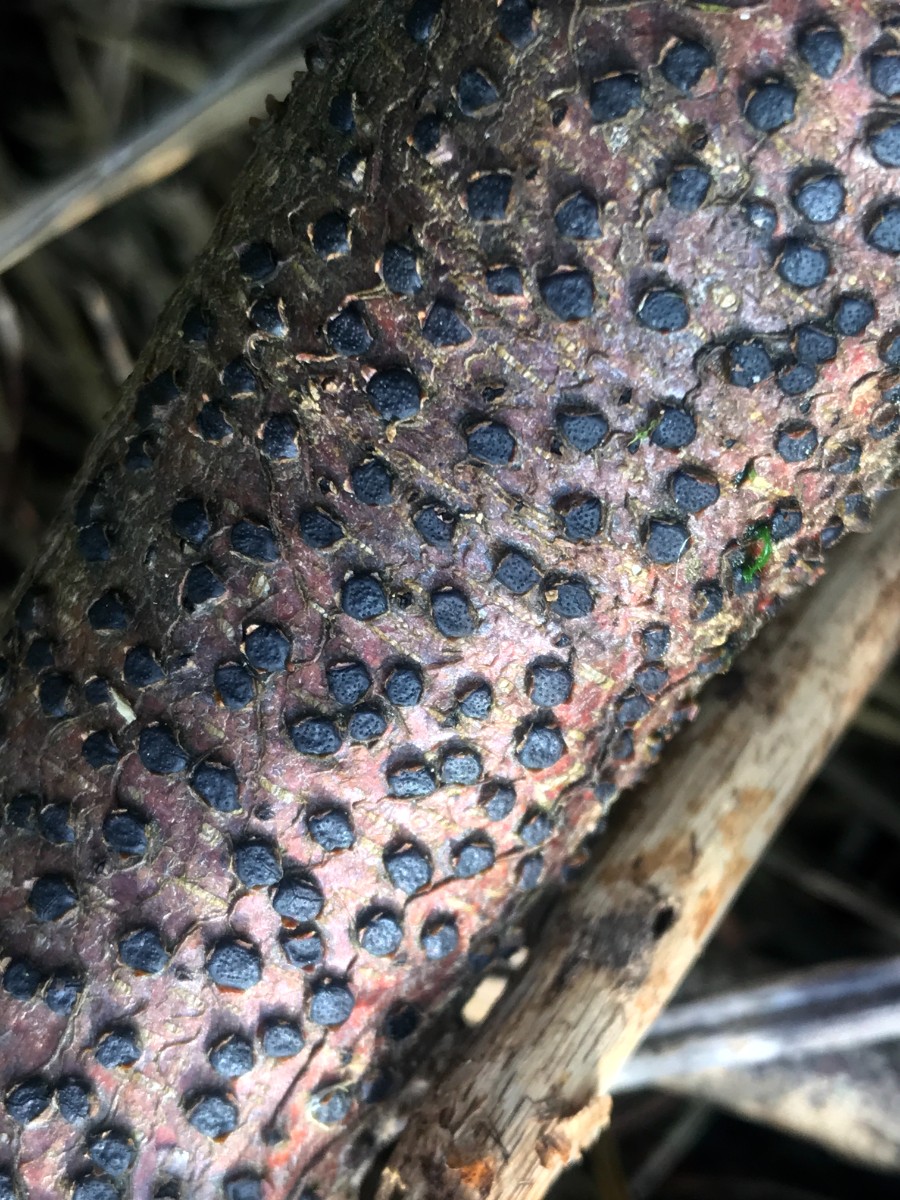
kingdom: Fungi
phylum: Ascomycota
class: Sordariomycetes
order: Xylariales
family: Diatrypaceae
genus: Diatrype
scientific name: Diatrype disciformis
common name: kant-kulskorpe
